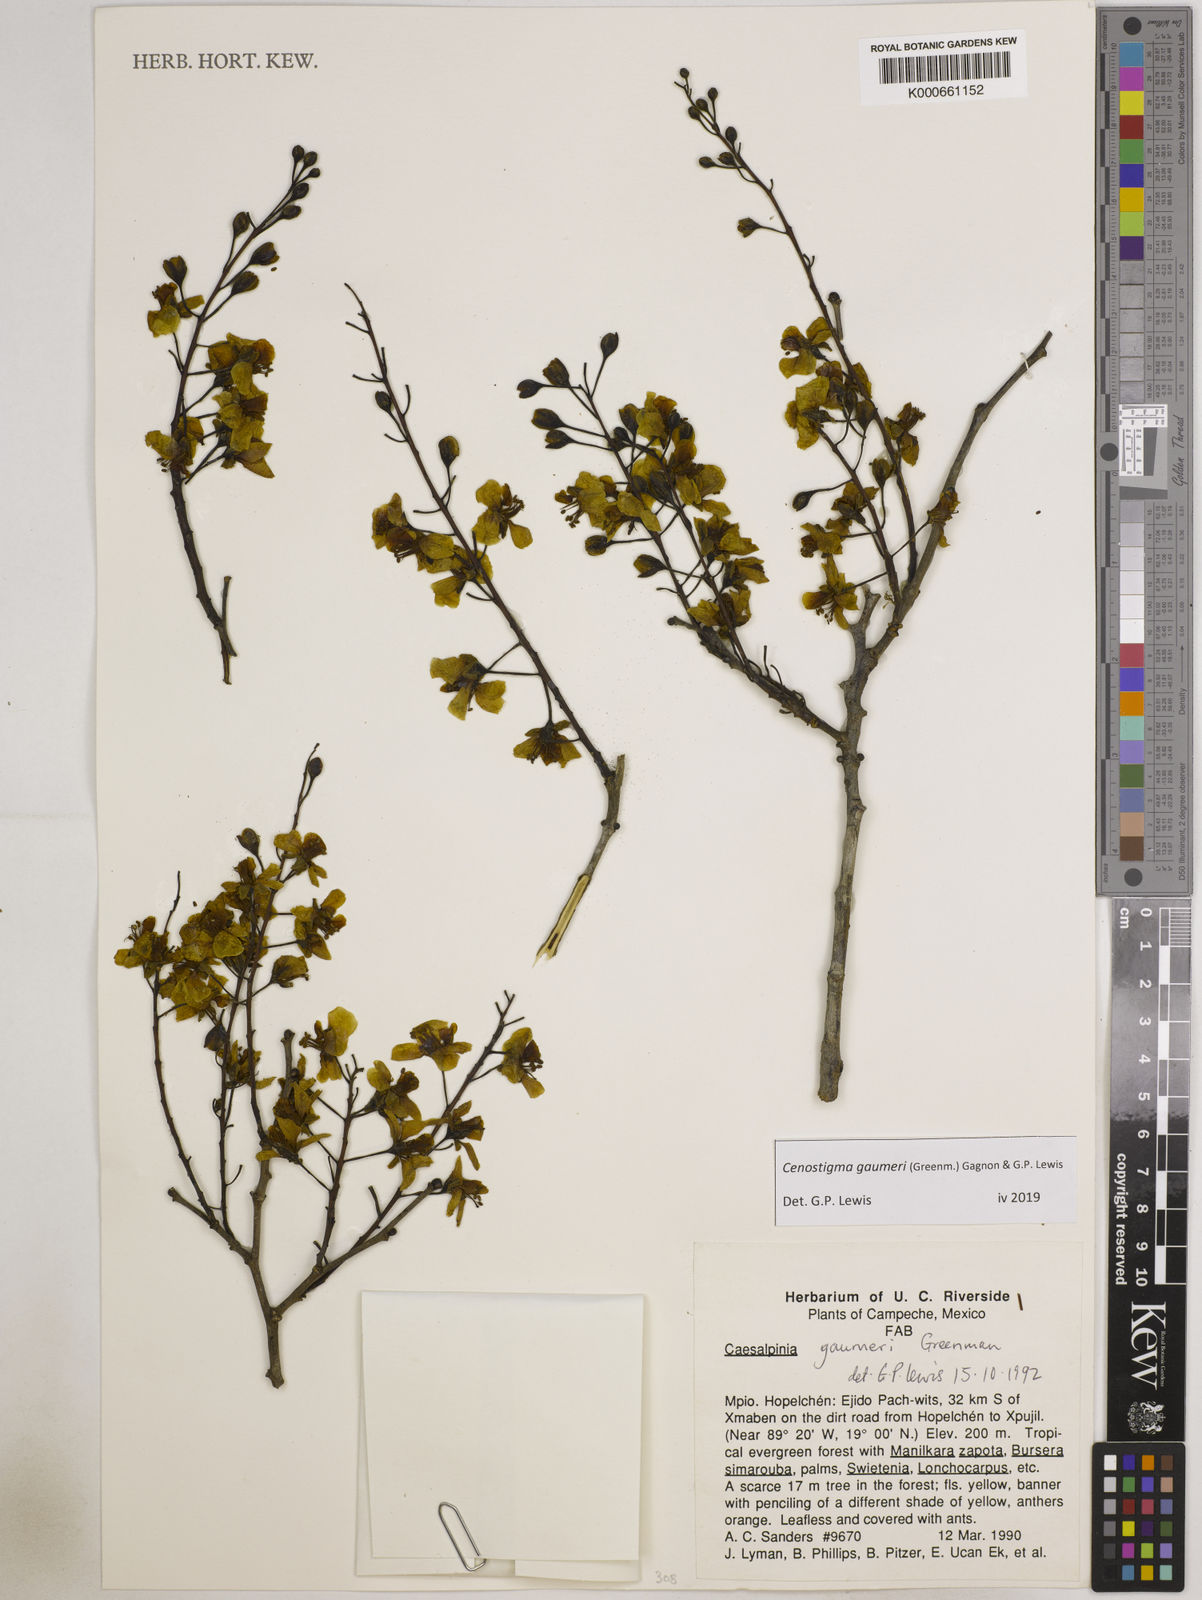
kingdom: Plantae
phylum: Tracheophyta
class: Magnoliopsida
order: Fabales
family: Fabaceae
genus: Cenostigma
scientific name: Cenostigma gaumeri
